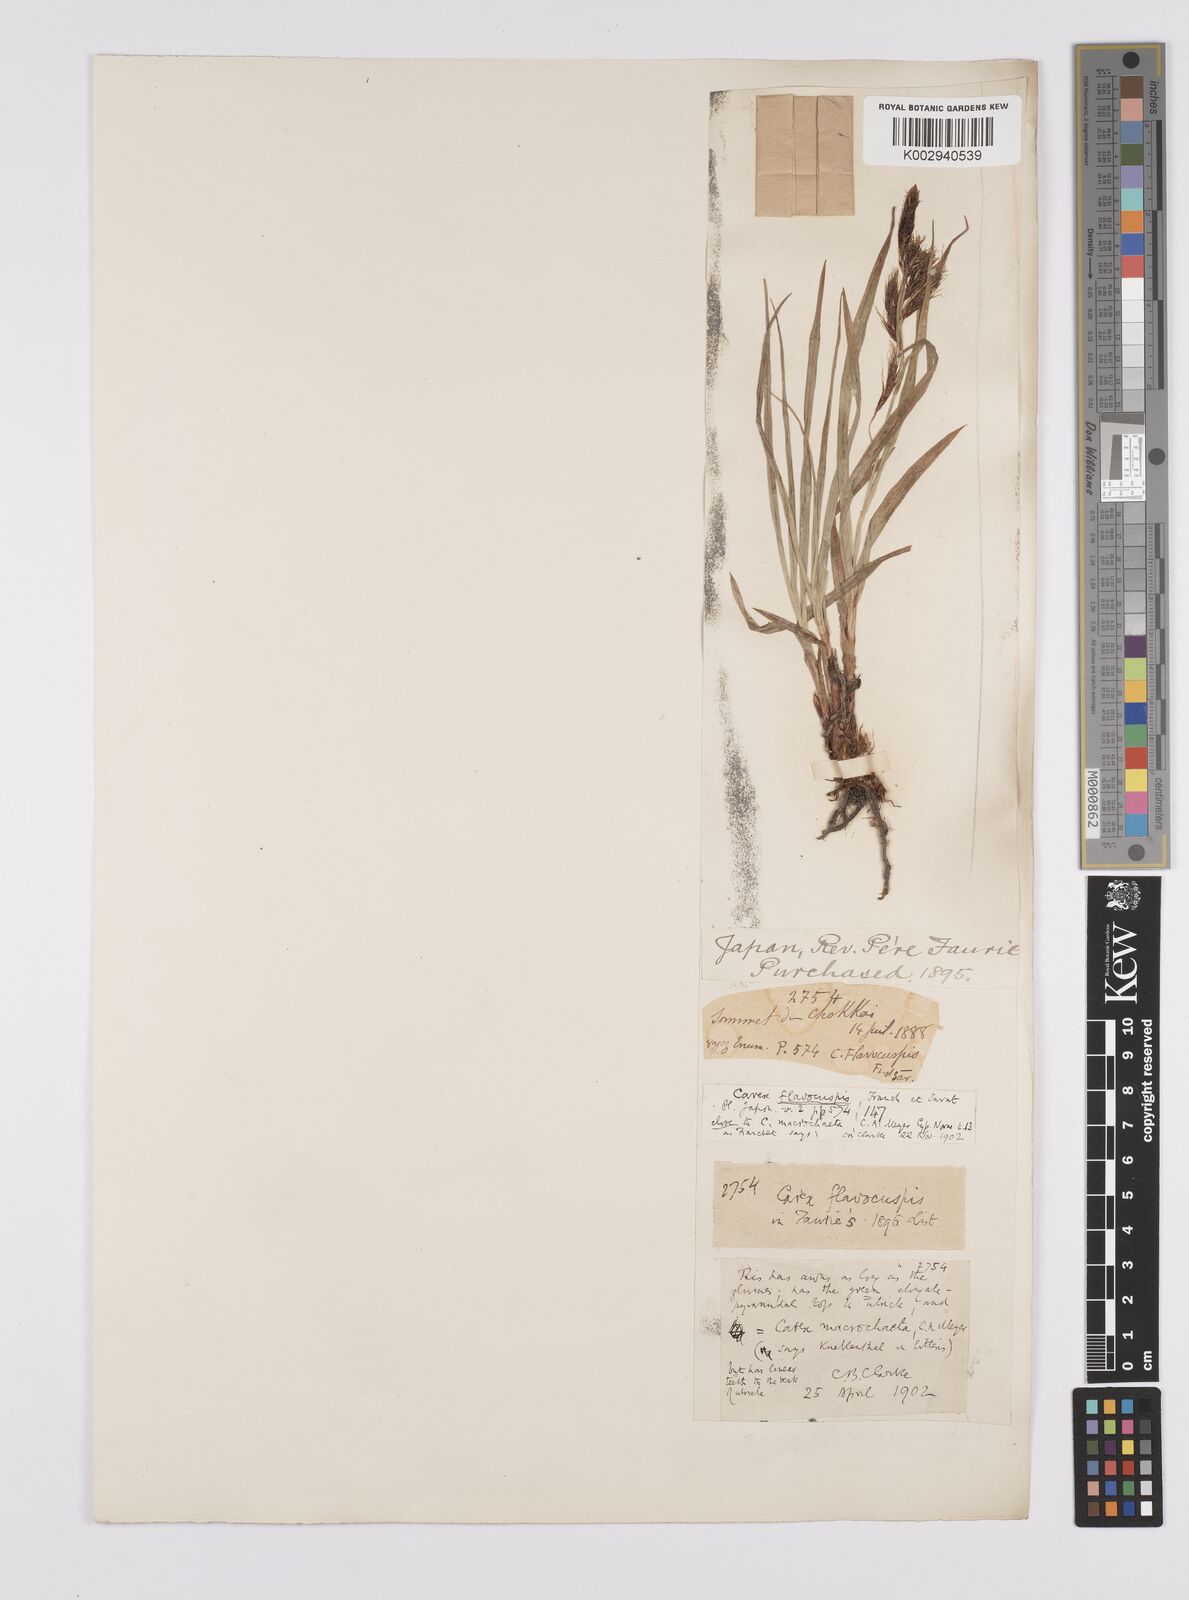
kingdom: Plantae
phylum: Tracheophyta
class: Liliopsida
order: Poales
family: Cyperaceae
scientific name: Cyperaceae
